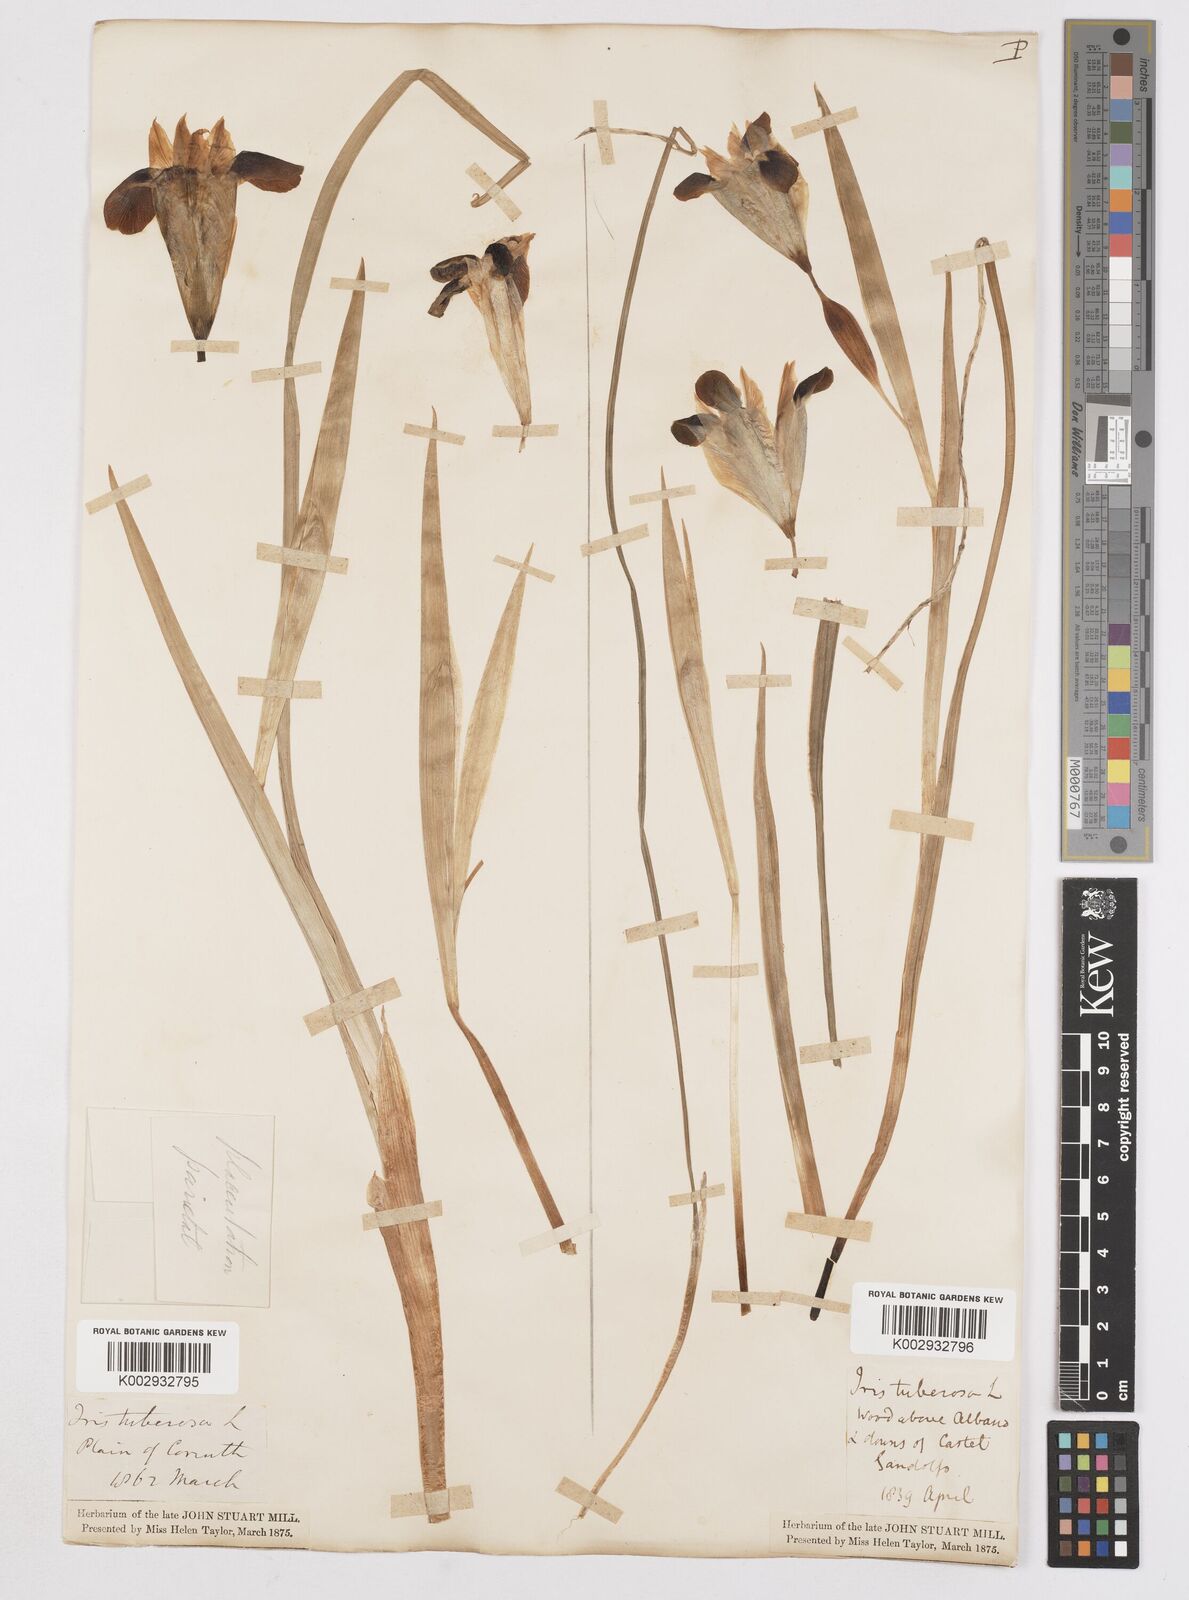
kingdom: Plantae
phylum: Tracheophyta
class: Liliopsida
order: Asparagales
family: Iridaceae
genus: Iris
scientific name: Iris tuberosa
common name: Snake's-head iris
